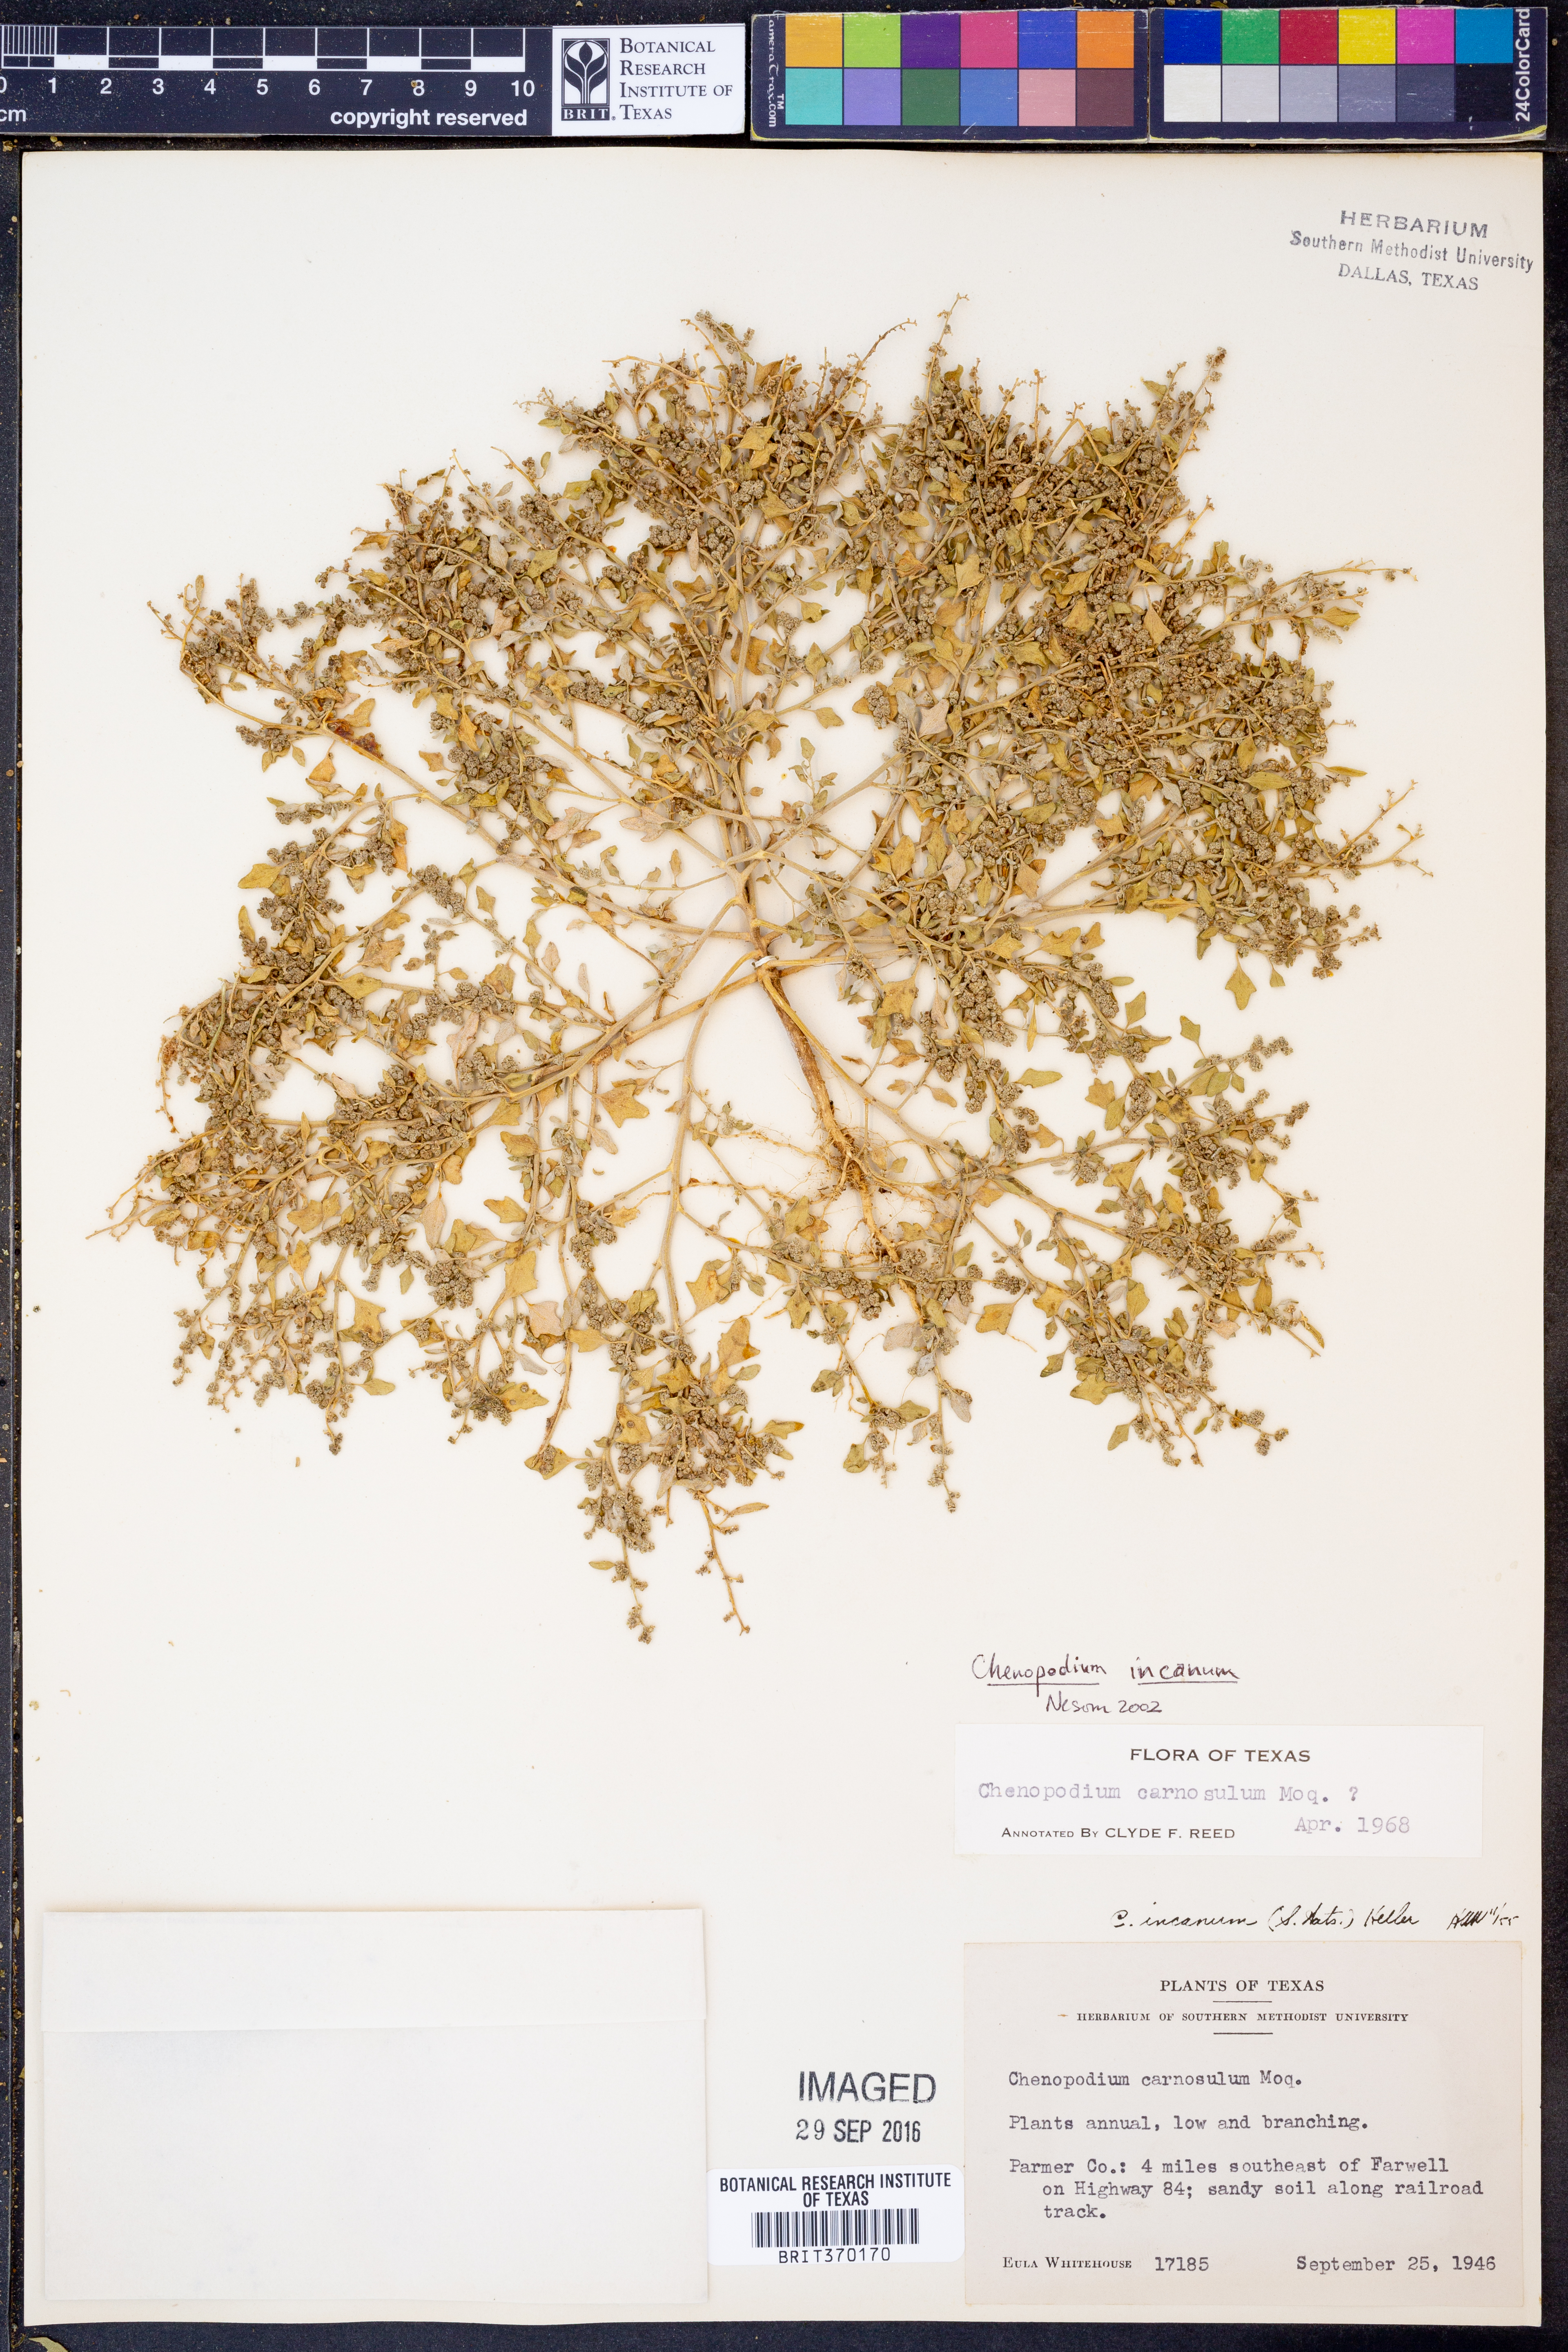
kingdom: Plantae
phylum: Tracheophyta
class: Magnoliopsida
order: Caryophyllales
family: Amaranthaceae
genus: Chenopodium
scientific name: Chenopodium incanum
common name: Hoary goosefoot
